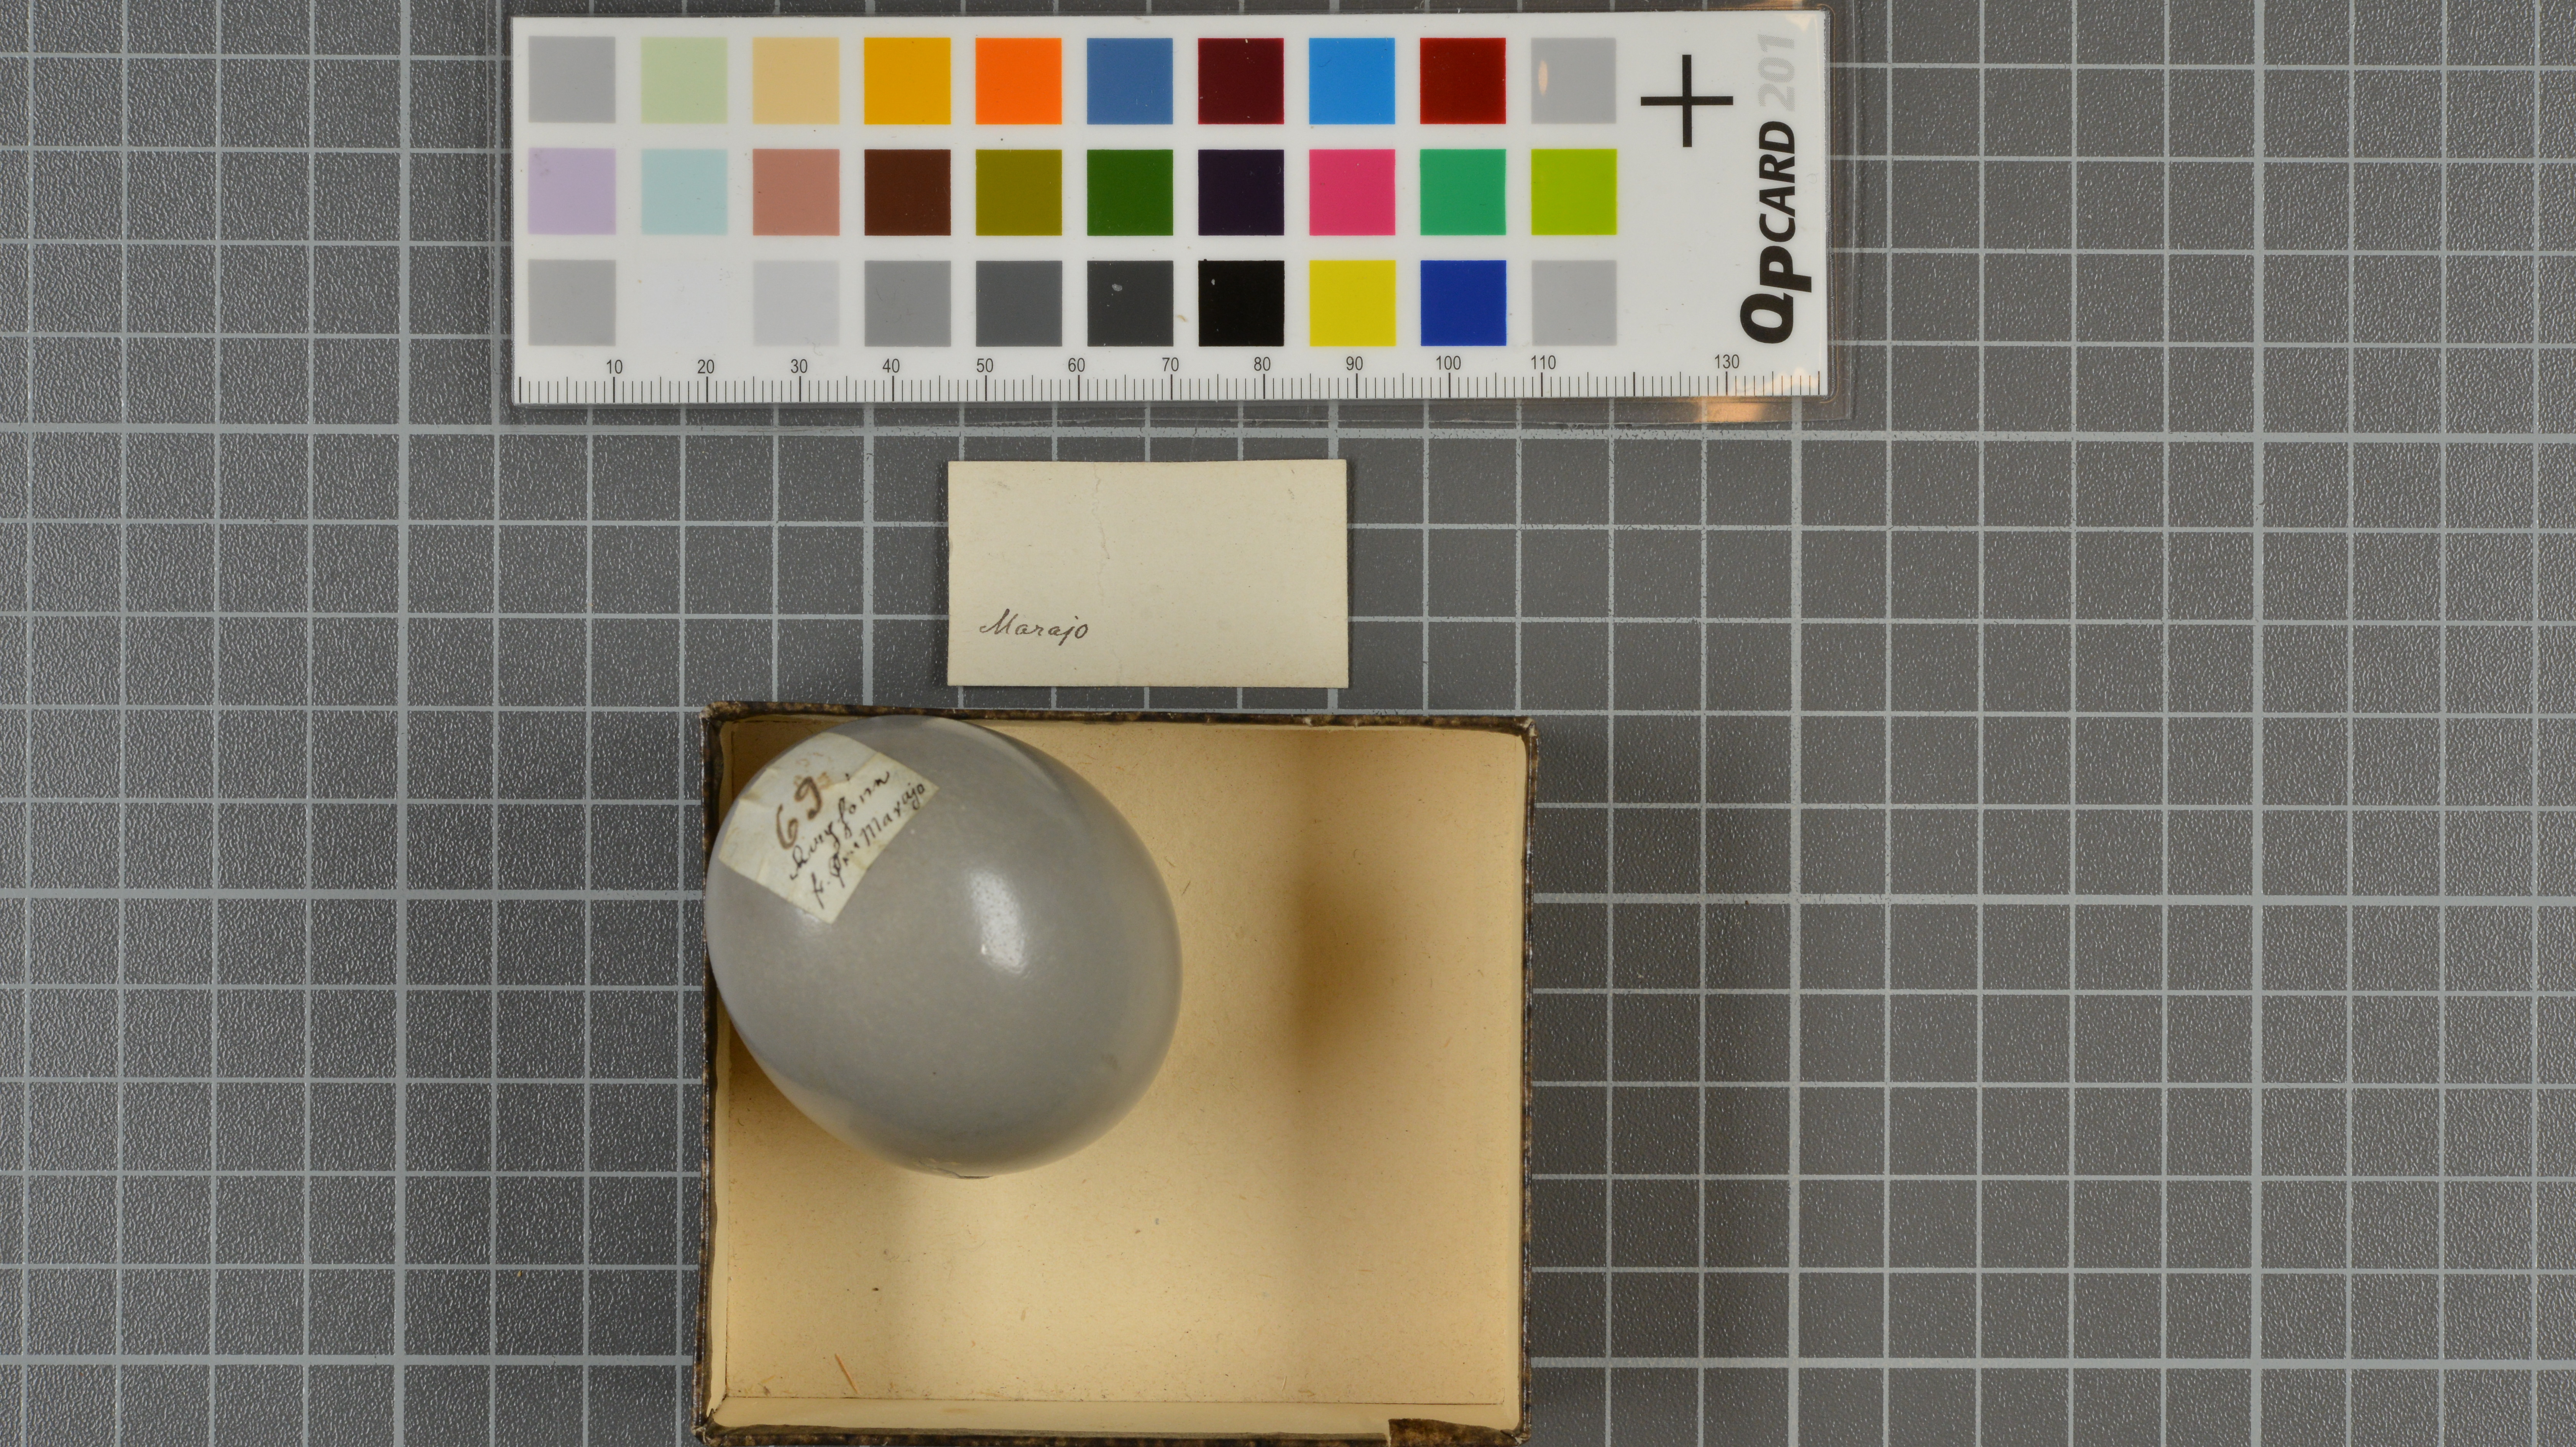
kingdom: Animalia
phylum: Chordata
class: Aves
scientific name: Aves
